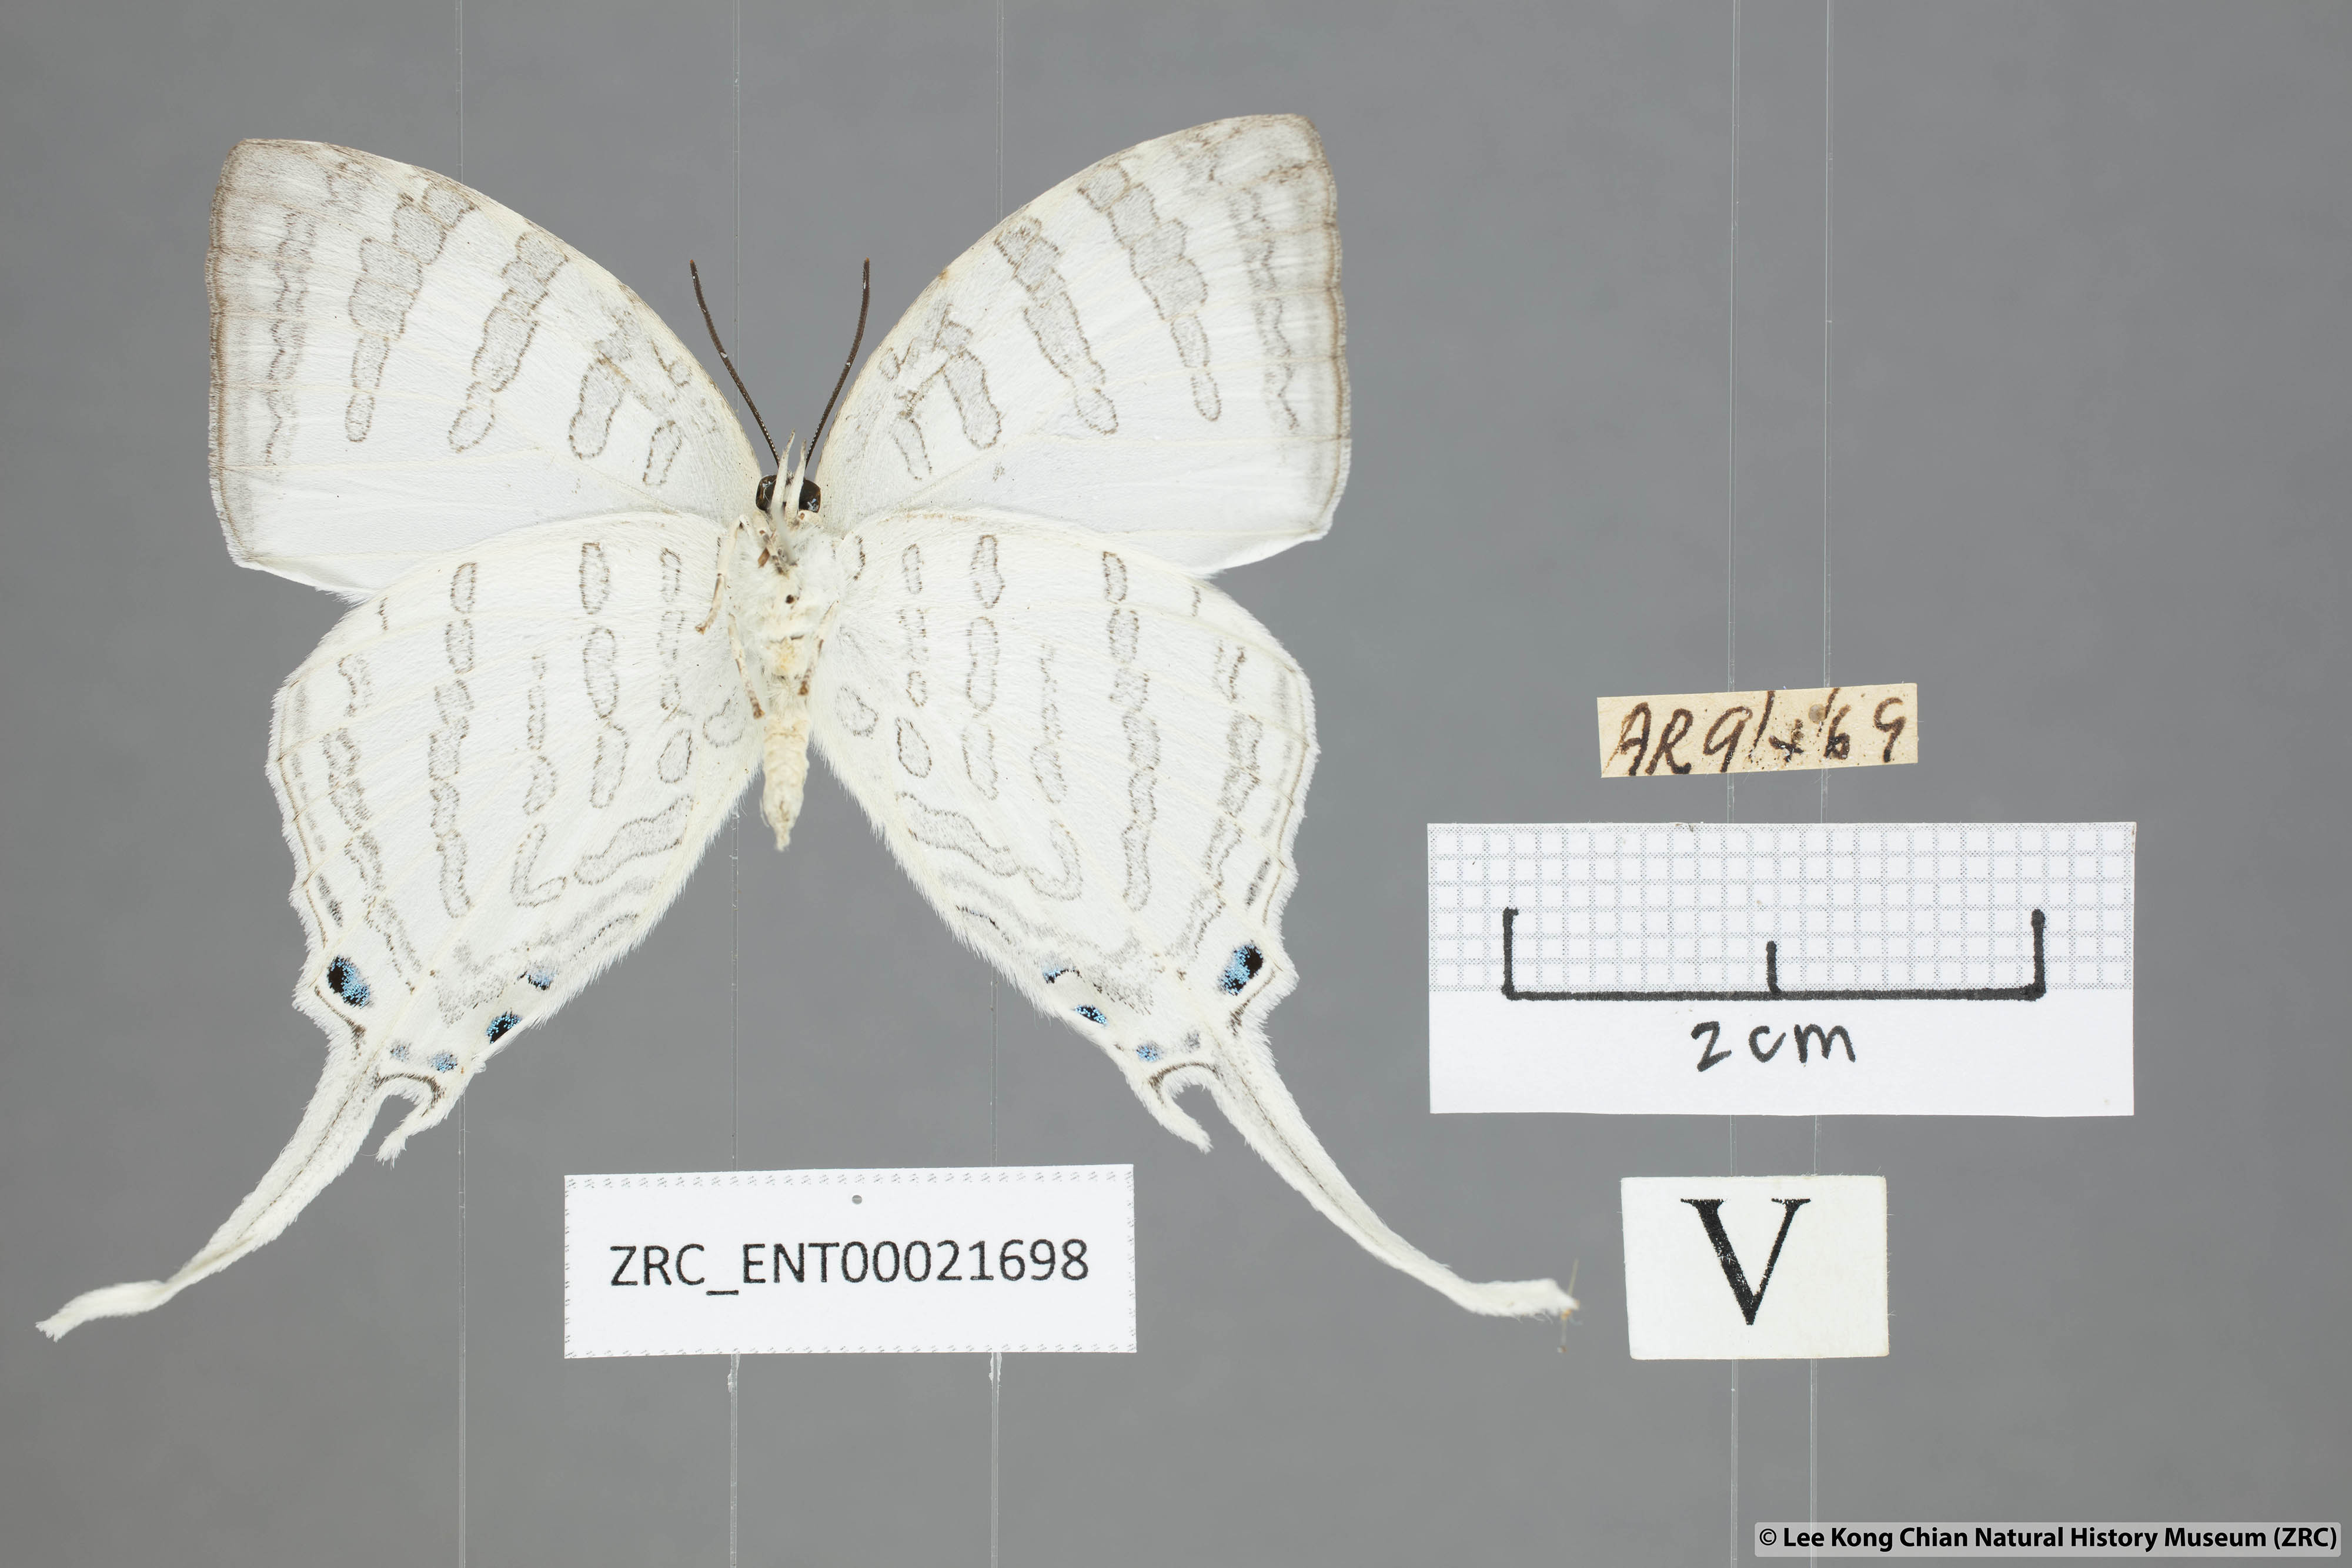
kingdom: Animalia
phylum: Arthropoda
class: Insecta
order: Lepidoptera
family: Lycaenidae
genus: Neomyrina
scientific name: Neomyrina nivea
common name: White imperial butterfly
